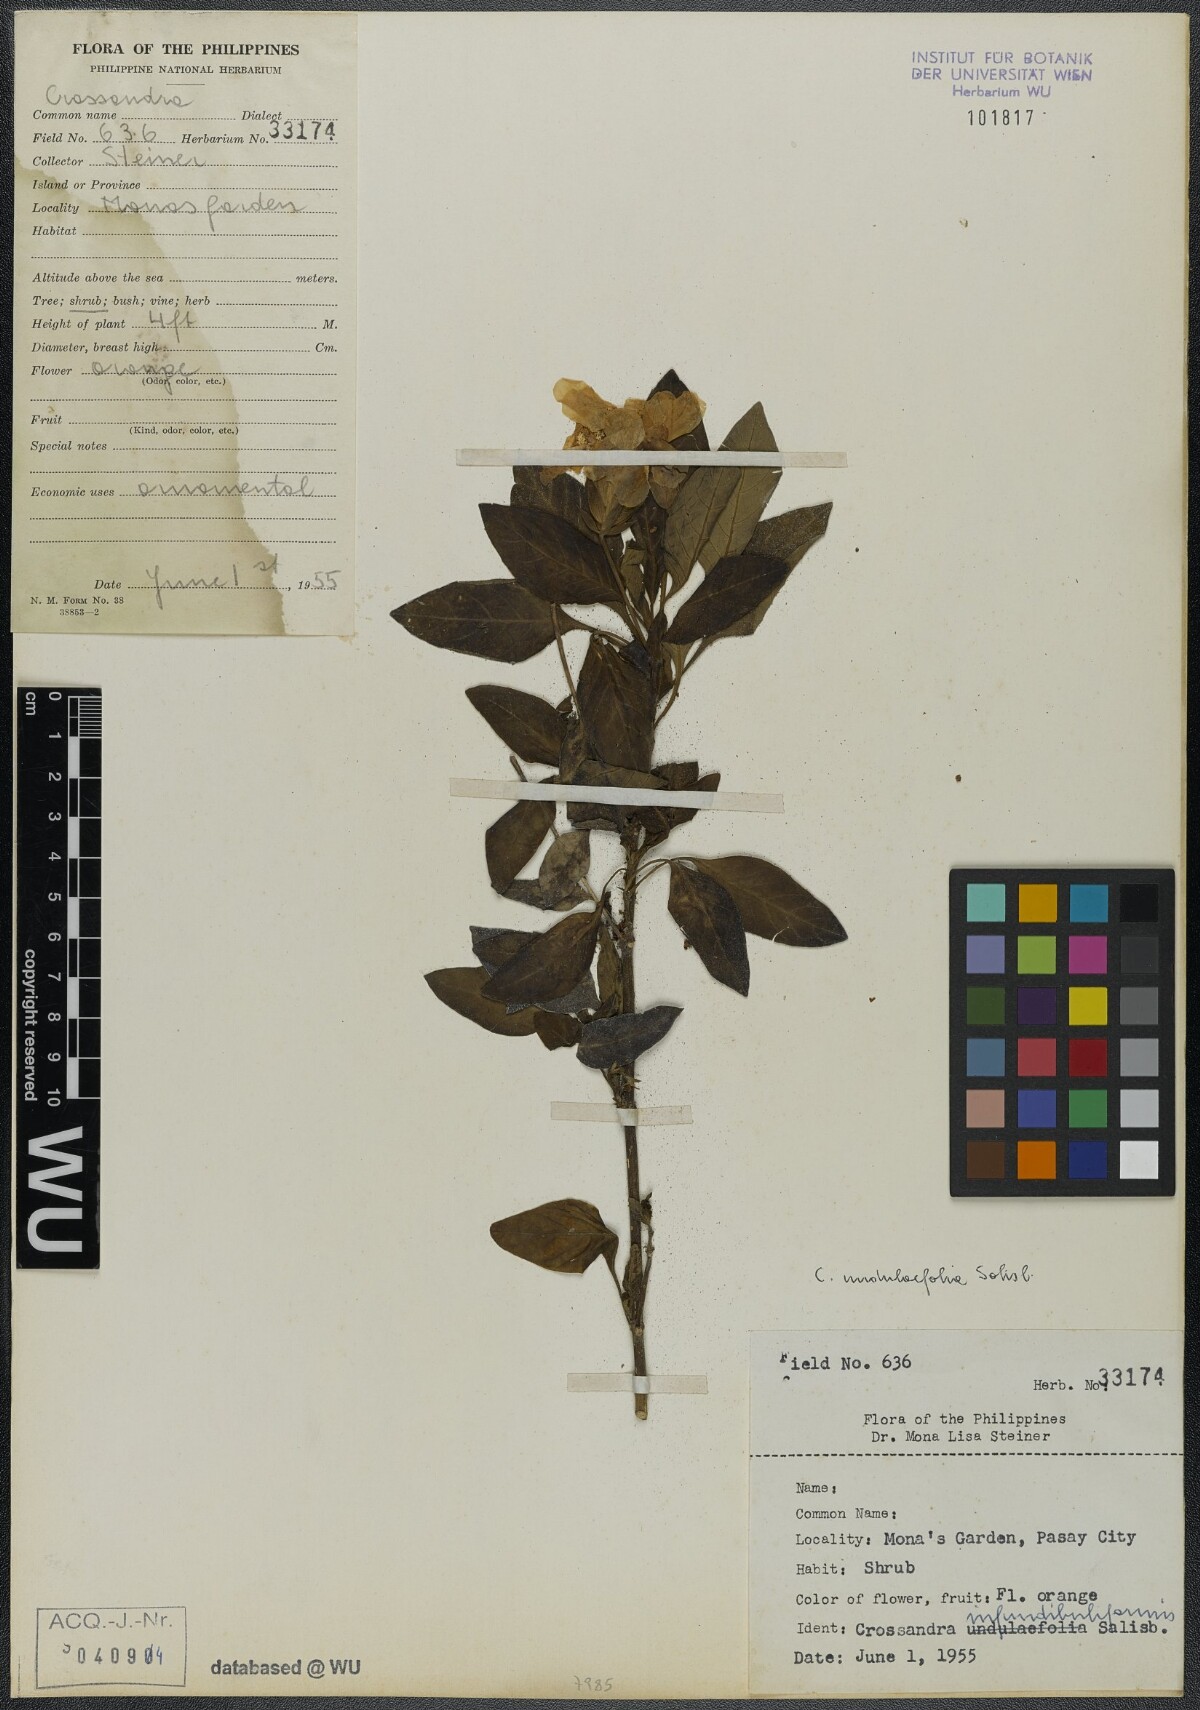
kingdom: Plantae
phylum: Tracheophyta
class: Magnoliopsida
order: Lamiales
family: Acanthaceae
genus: Crossandra
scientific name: Crossandra infundibuliformis
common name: Firecracker-flower
